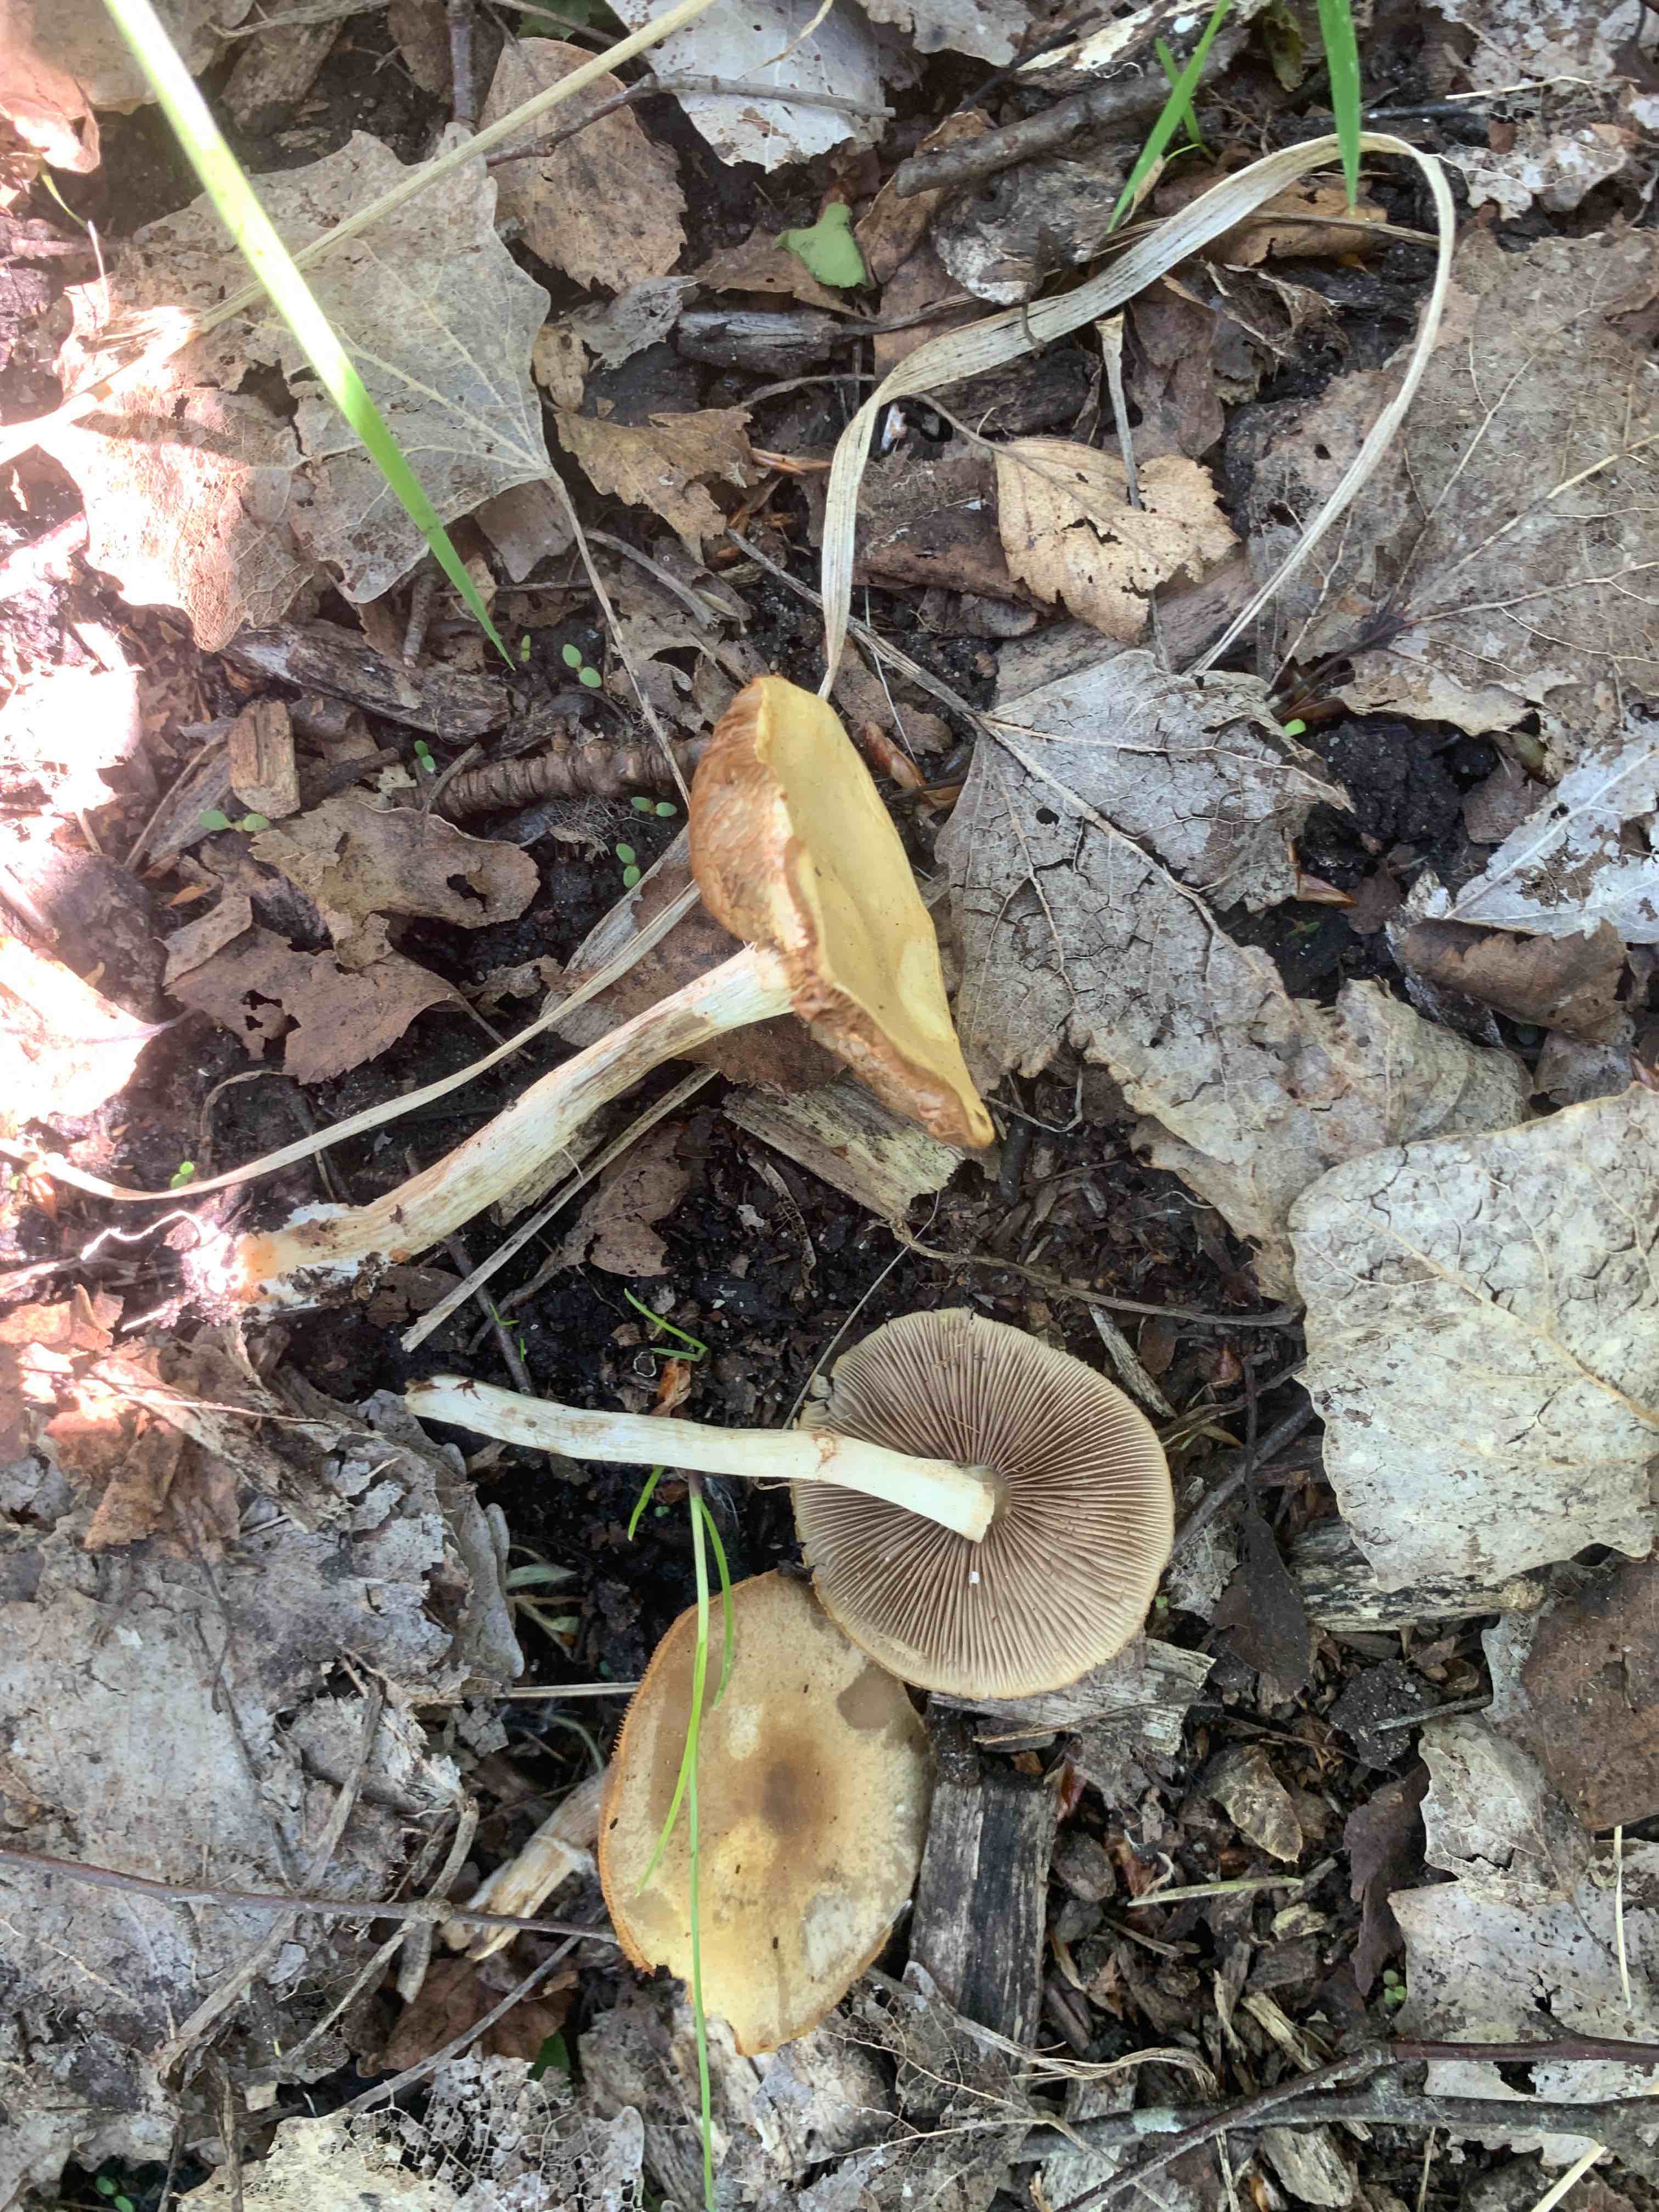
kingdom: Fungi
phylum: Basidiomycota
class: Agaricomycetes
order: Agaricales
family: Strophariaceae
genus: Agrocybe
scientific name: Agrocybe praecox
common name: tidlig agerhat
